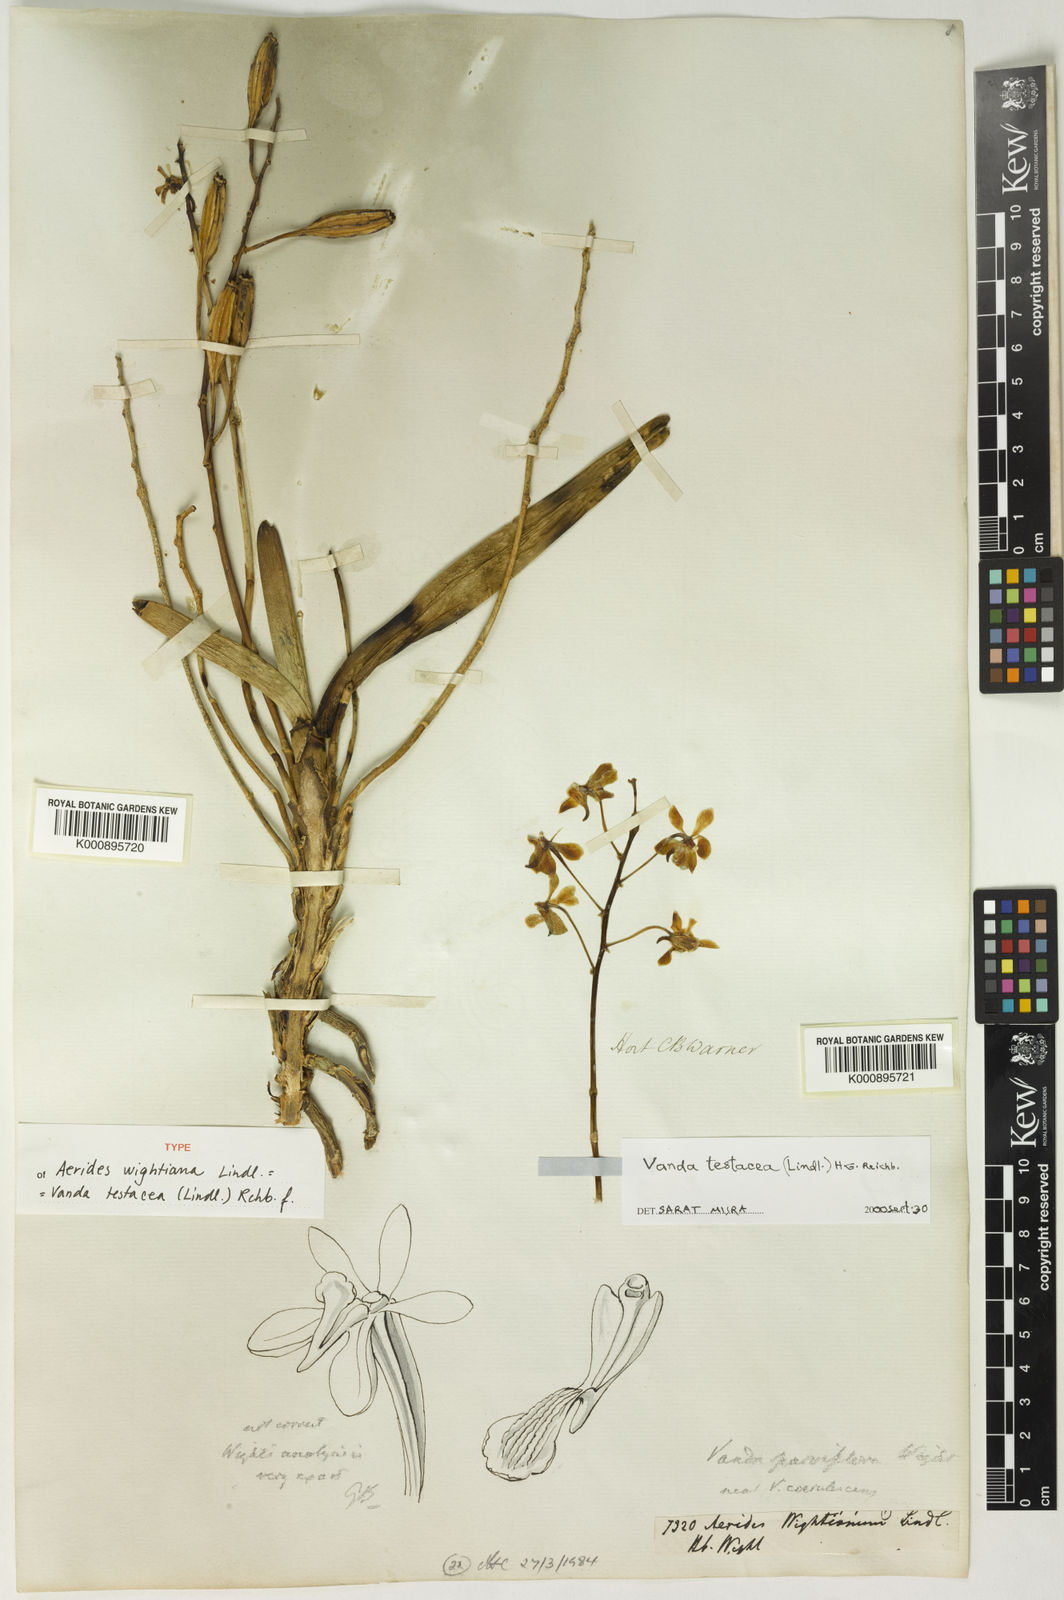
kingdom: Plantae
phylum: Tracheophyta
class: Liliopsida
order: Asparagales
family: Orchidaceae
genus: Vanda
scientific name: Vanda testacea
